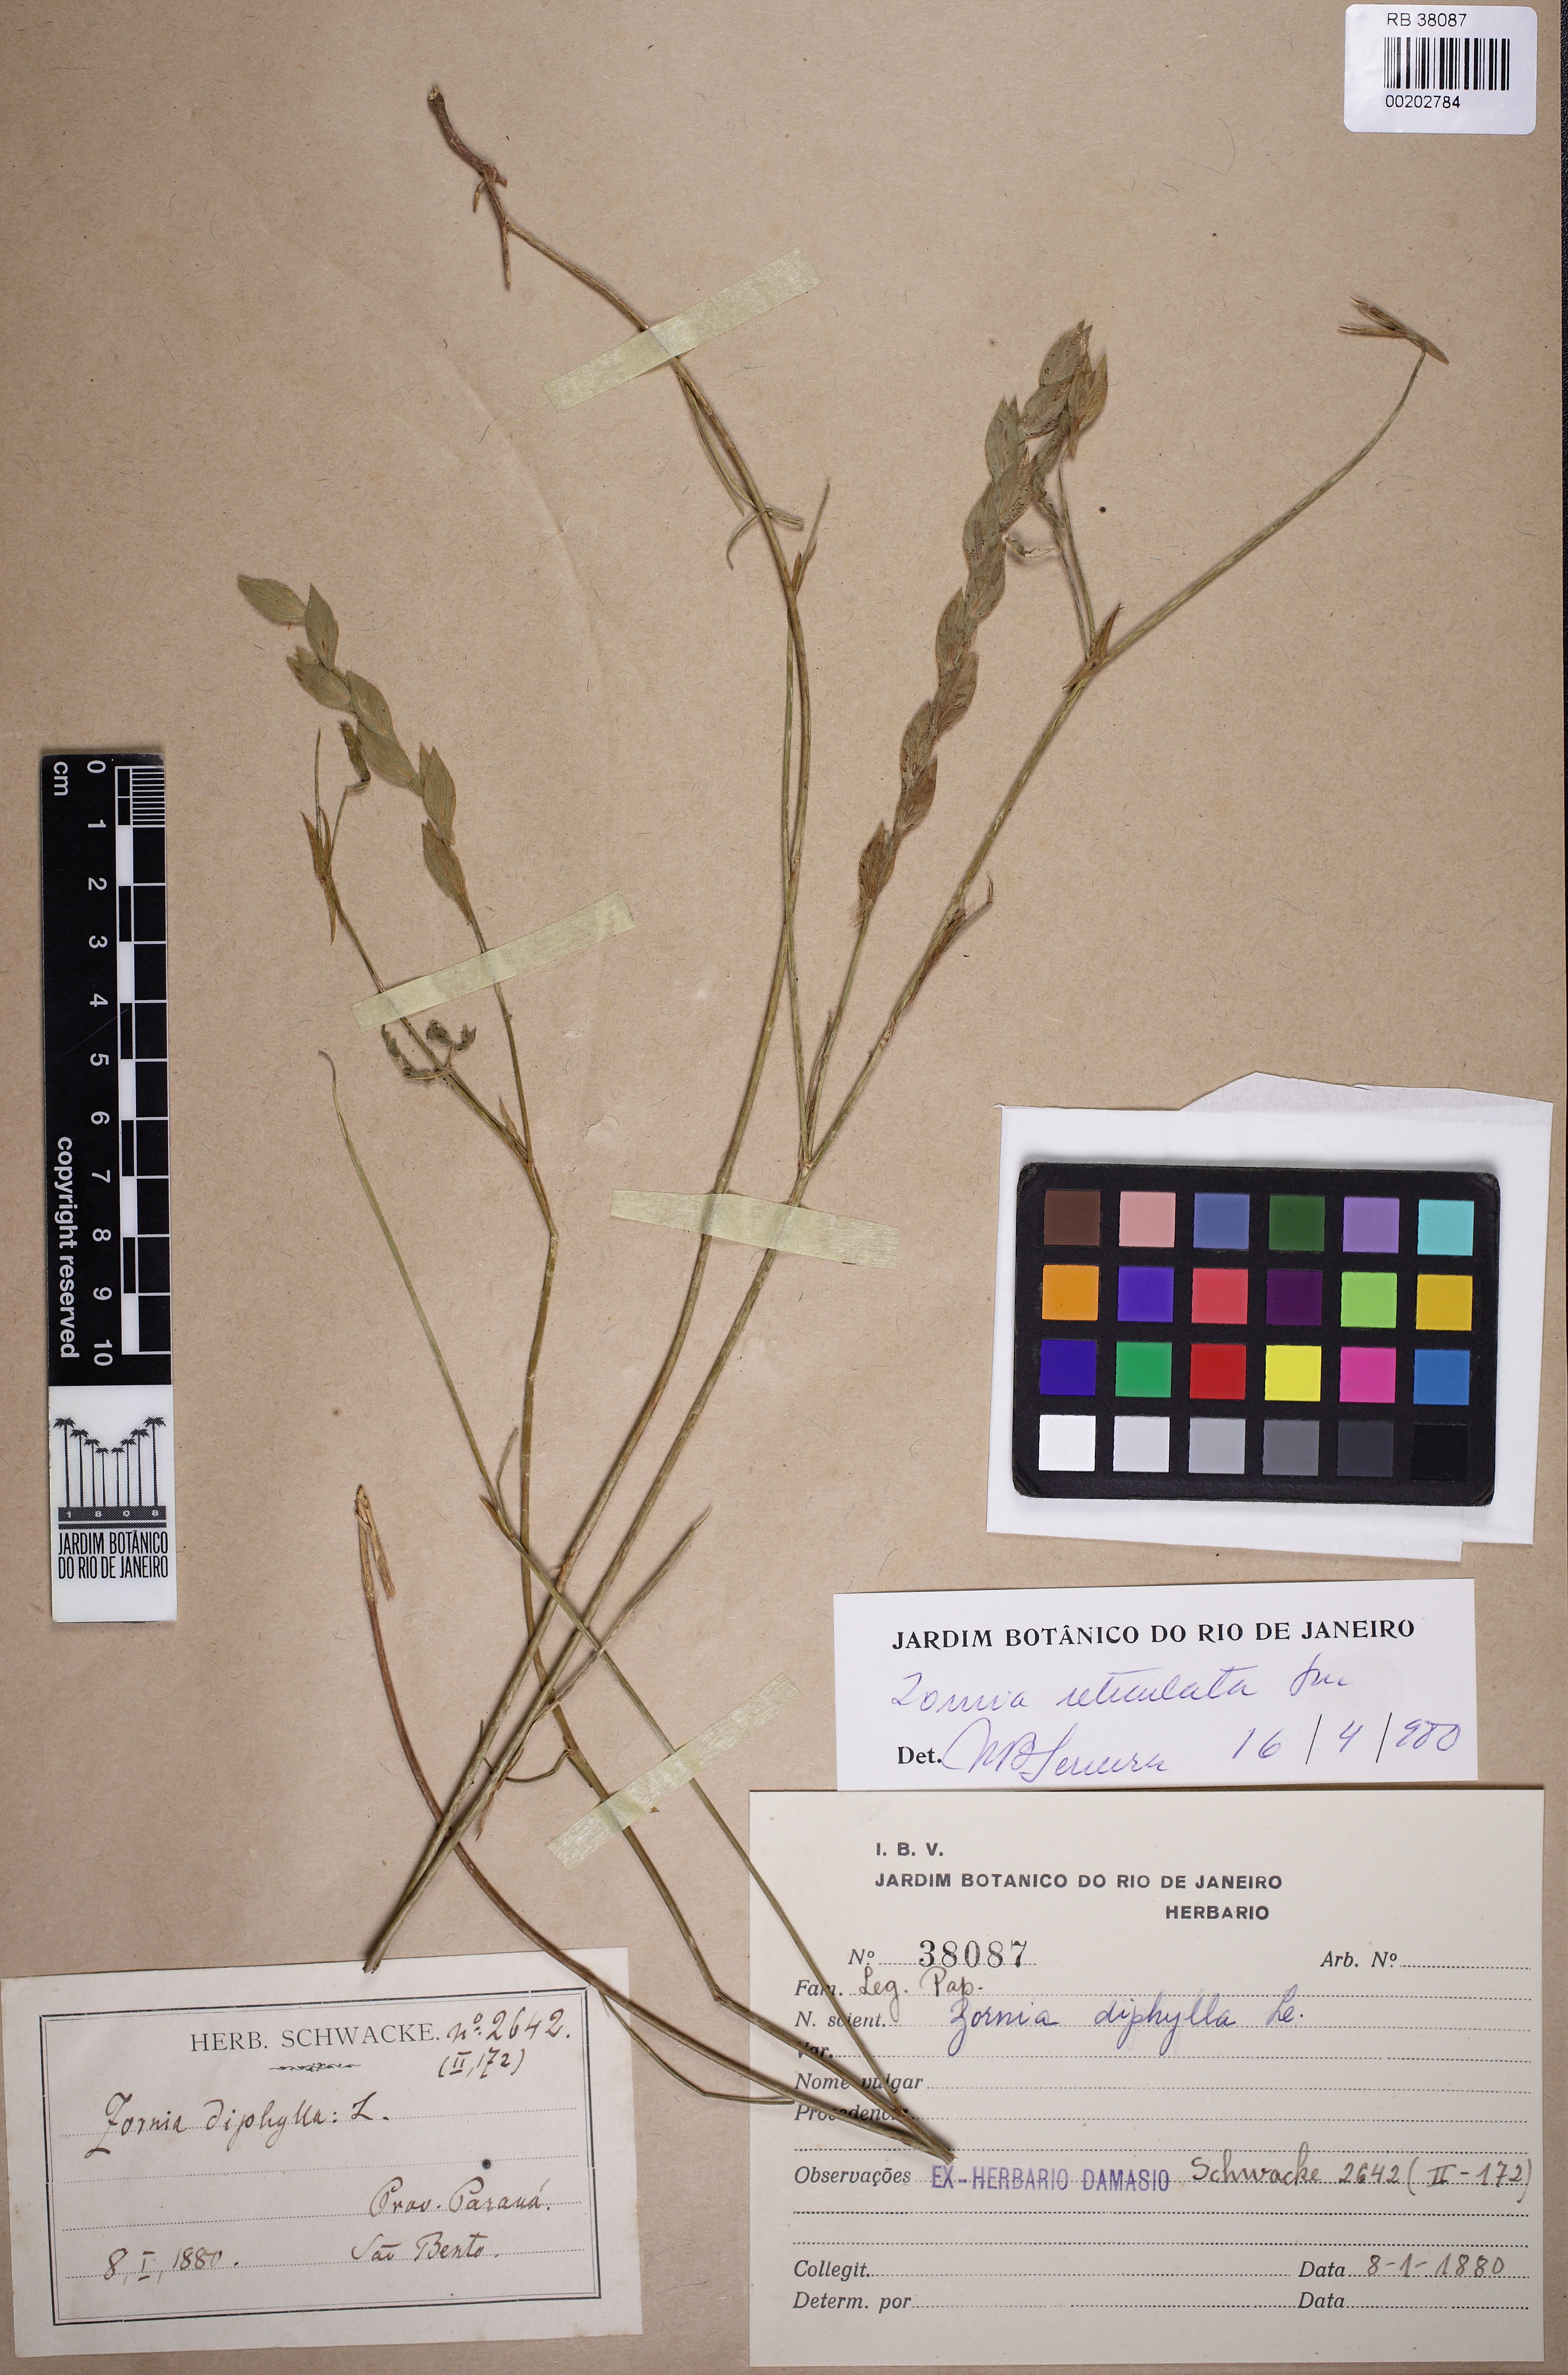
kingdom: Plantae
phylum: Tracheophyta
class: Magnoliopsida
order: Fabales
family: Fabaceae
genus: Zornia
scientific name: Zornia diphylla
